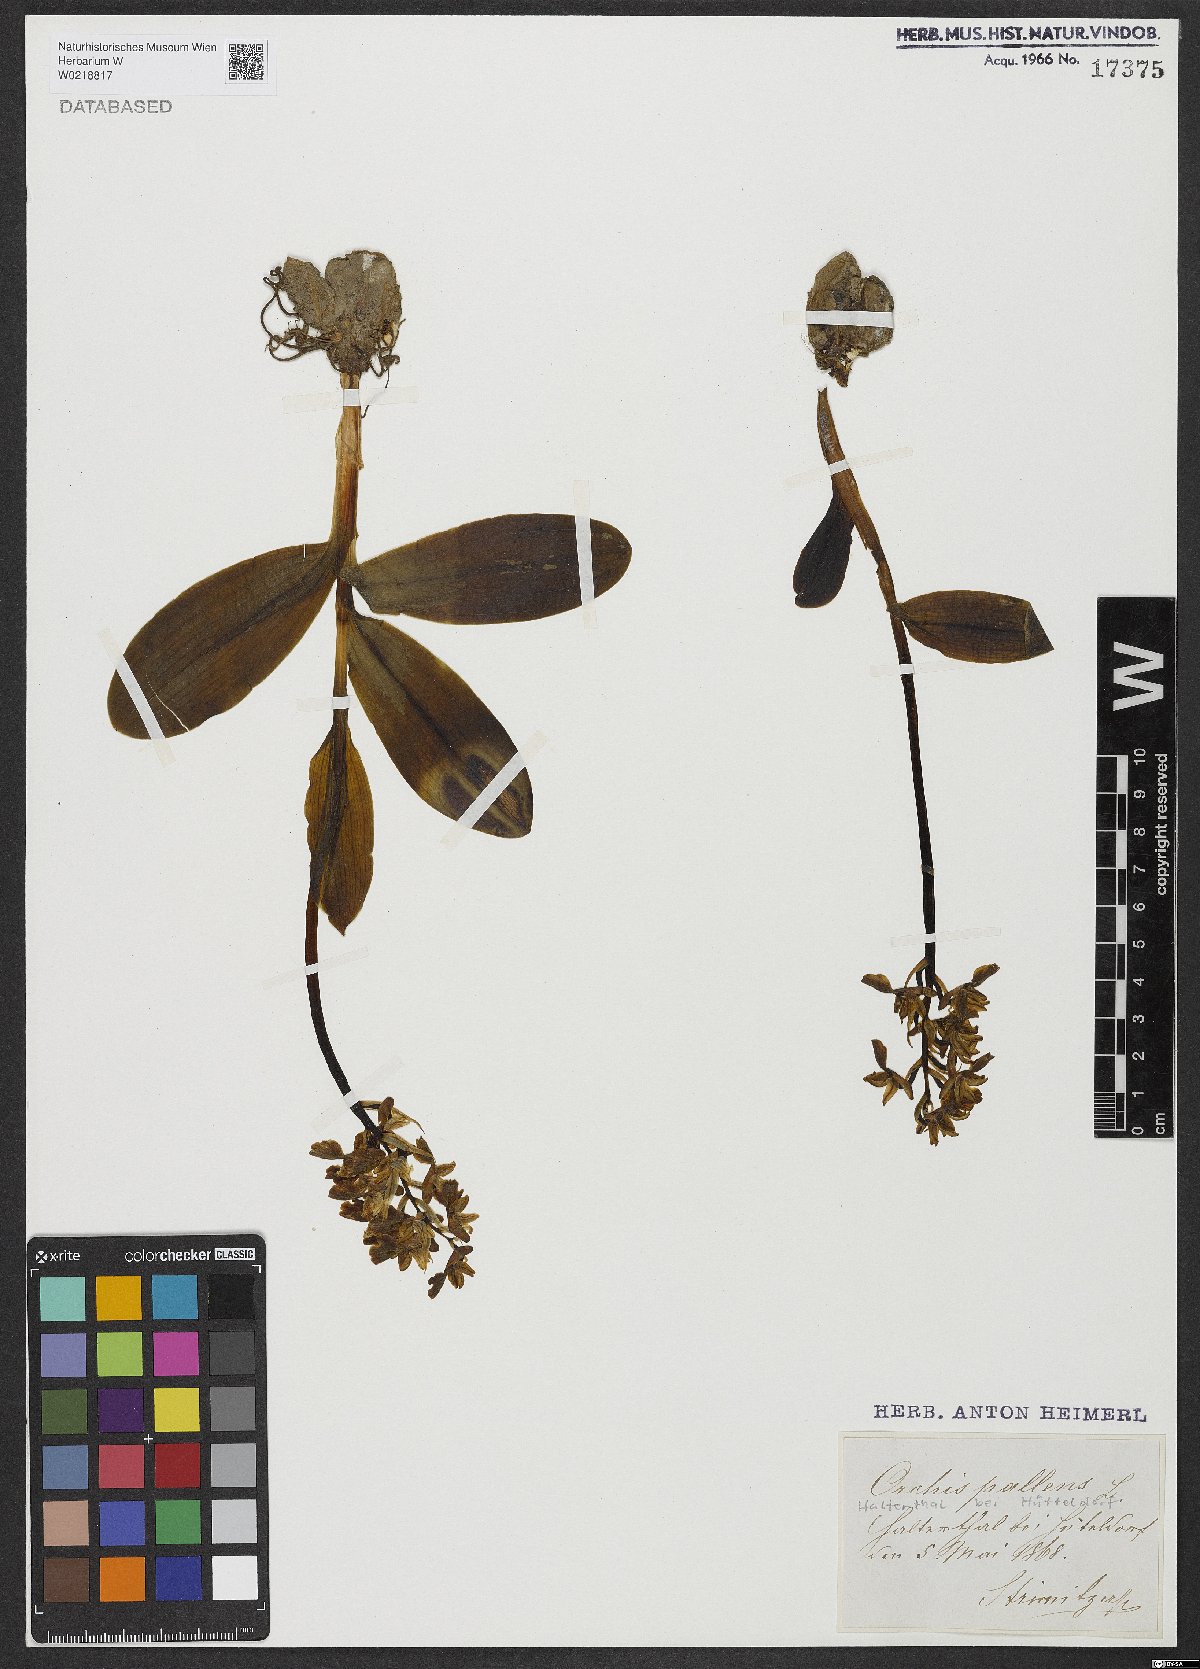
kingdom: Plantae
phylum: Tracheophyta
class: Liliopsida
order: Asparagales
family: Orchidaceae
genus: Orchis
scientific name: Orchis pallens
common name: Pale-flowered orchid
